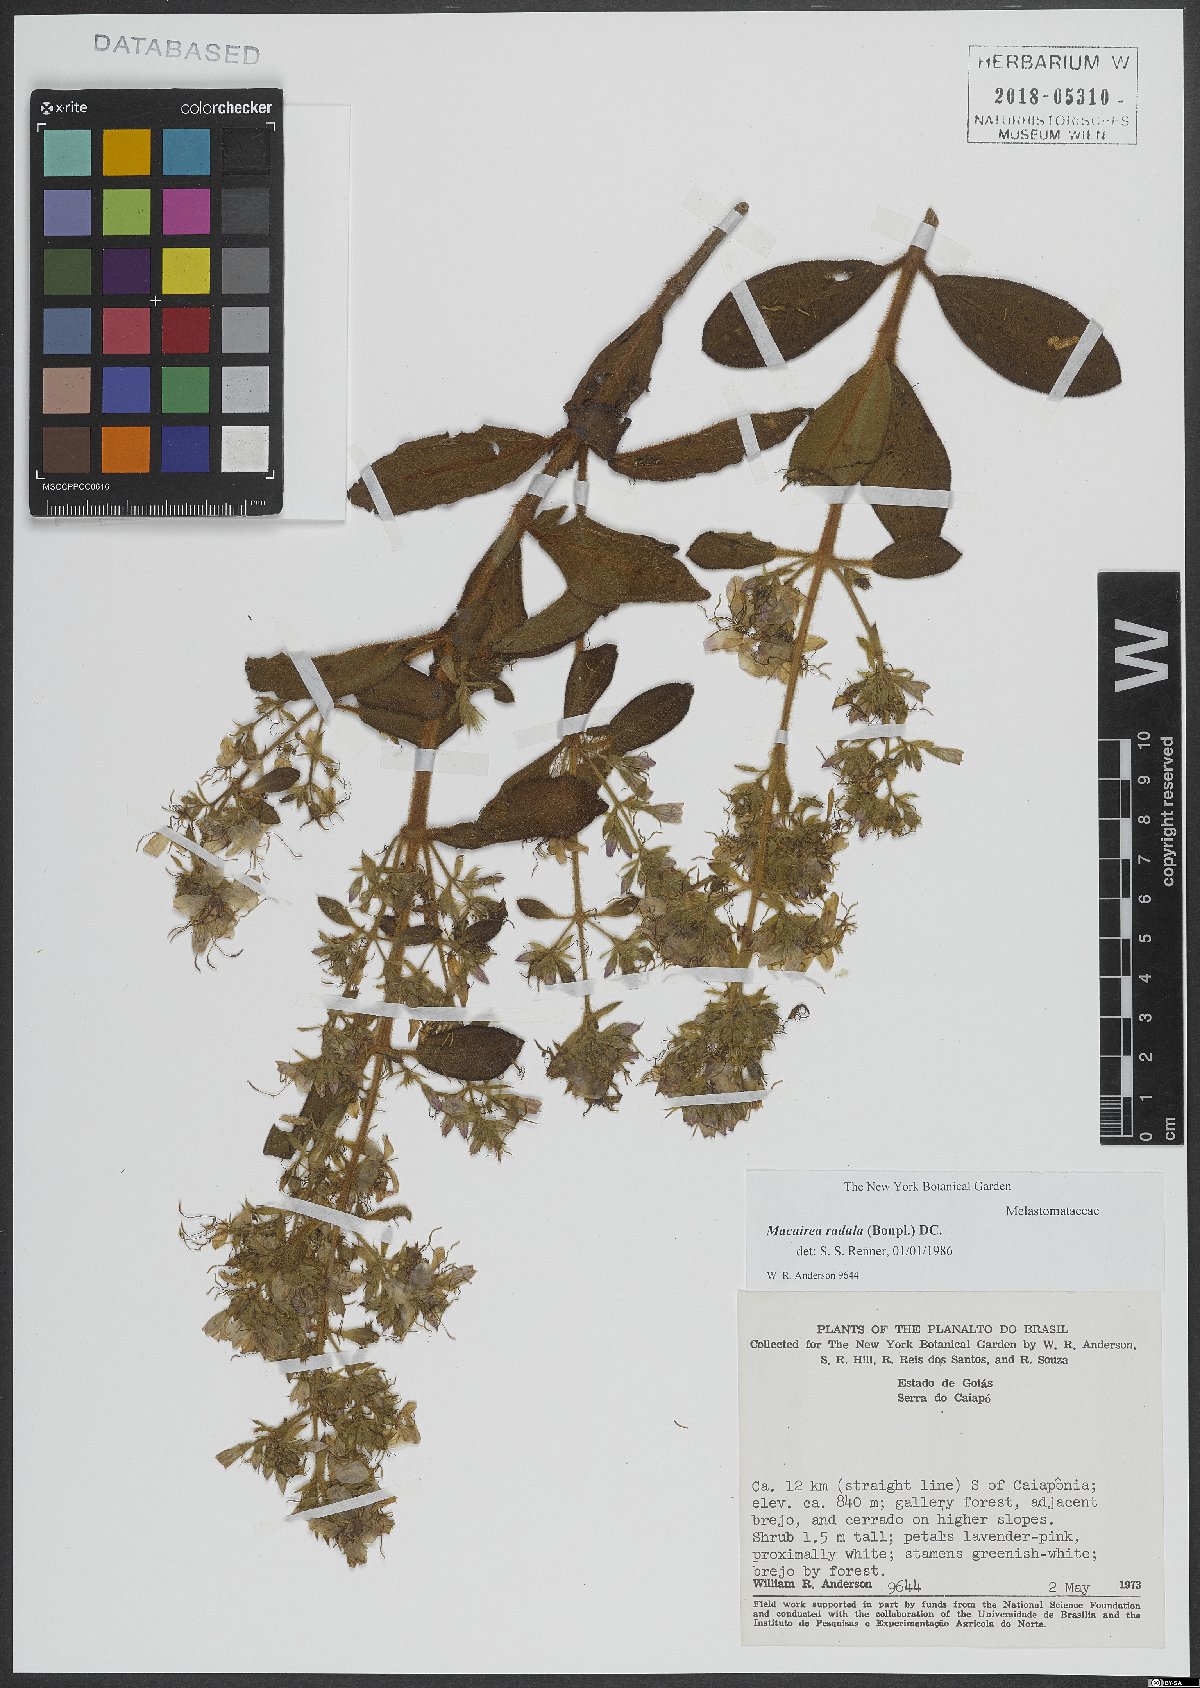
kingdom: Plantae
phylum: Tracheophyta
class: Magnoliopsida
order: Myrtales
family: Melastomataceae
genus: Macairea
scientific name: Macairea radula
